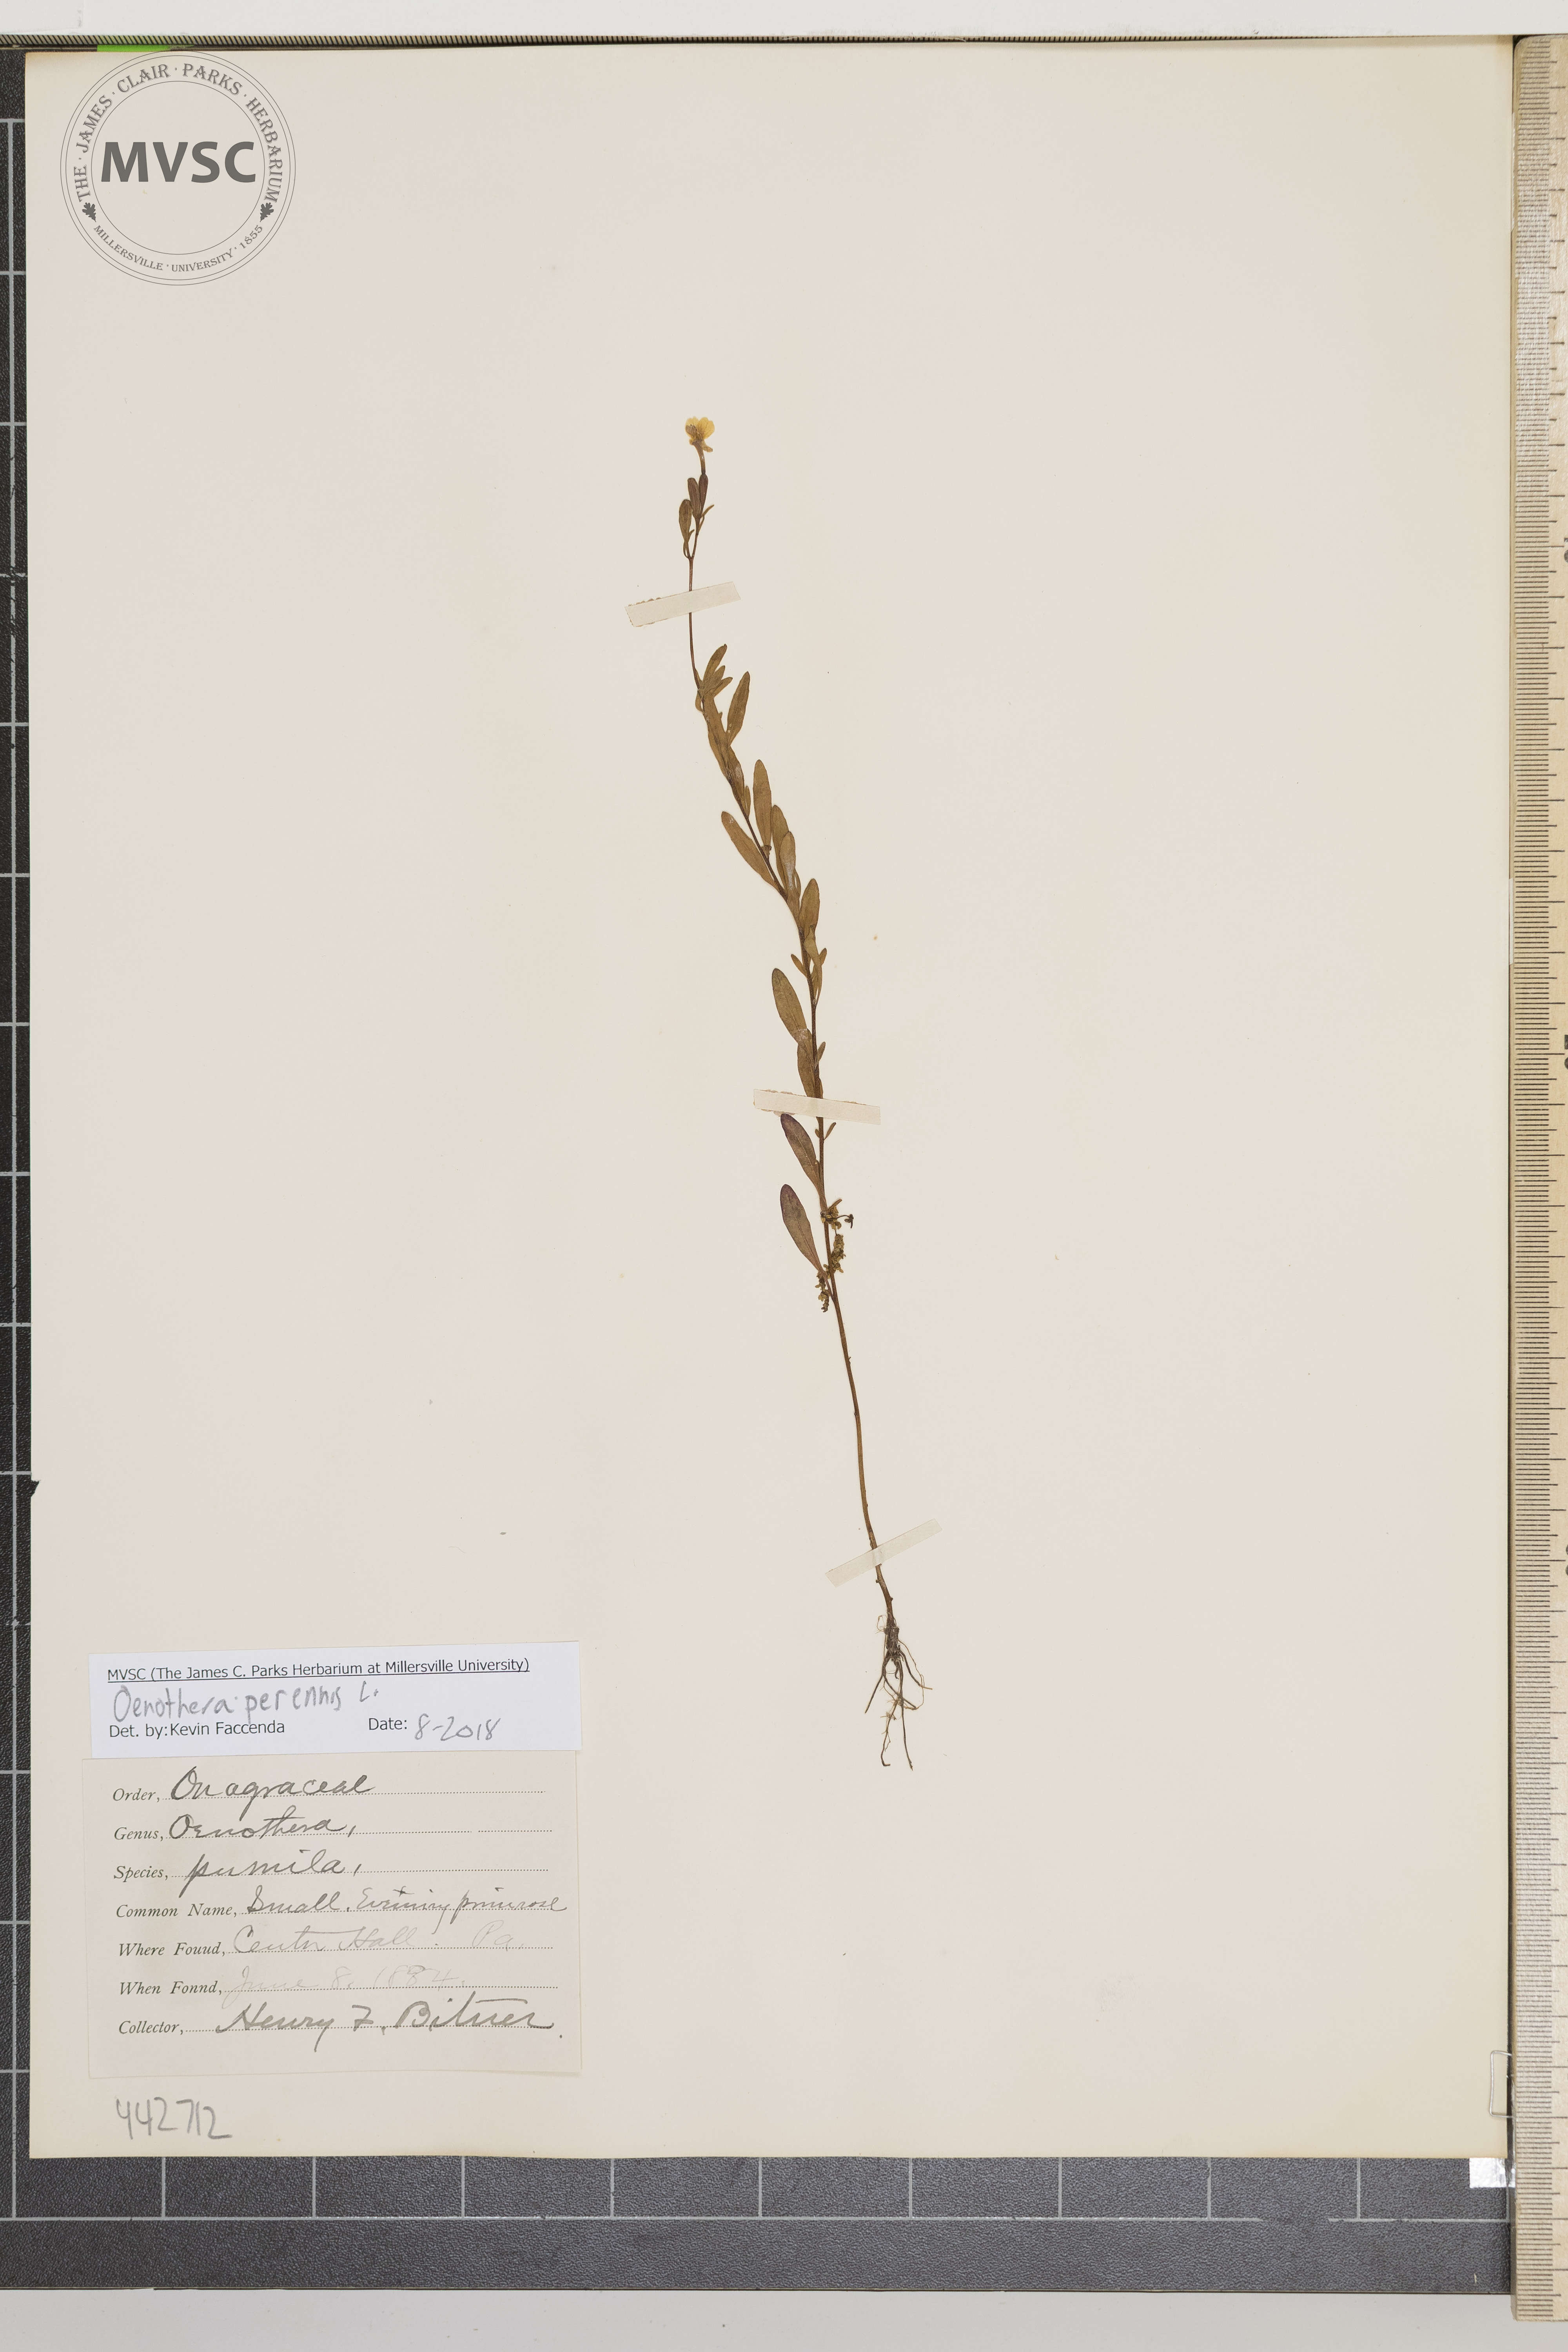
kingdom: Plantae
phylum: Tracheophyta
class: Magnoliopsida
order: Myrtales
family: Onagraceae
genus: Oenothera
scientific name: Oenothera perennis
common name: Small evening primrose
